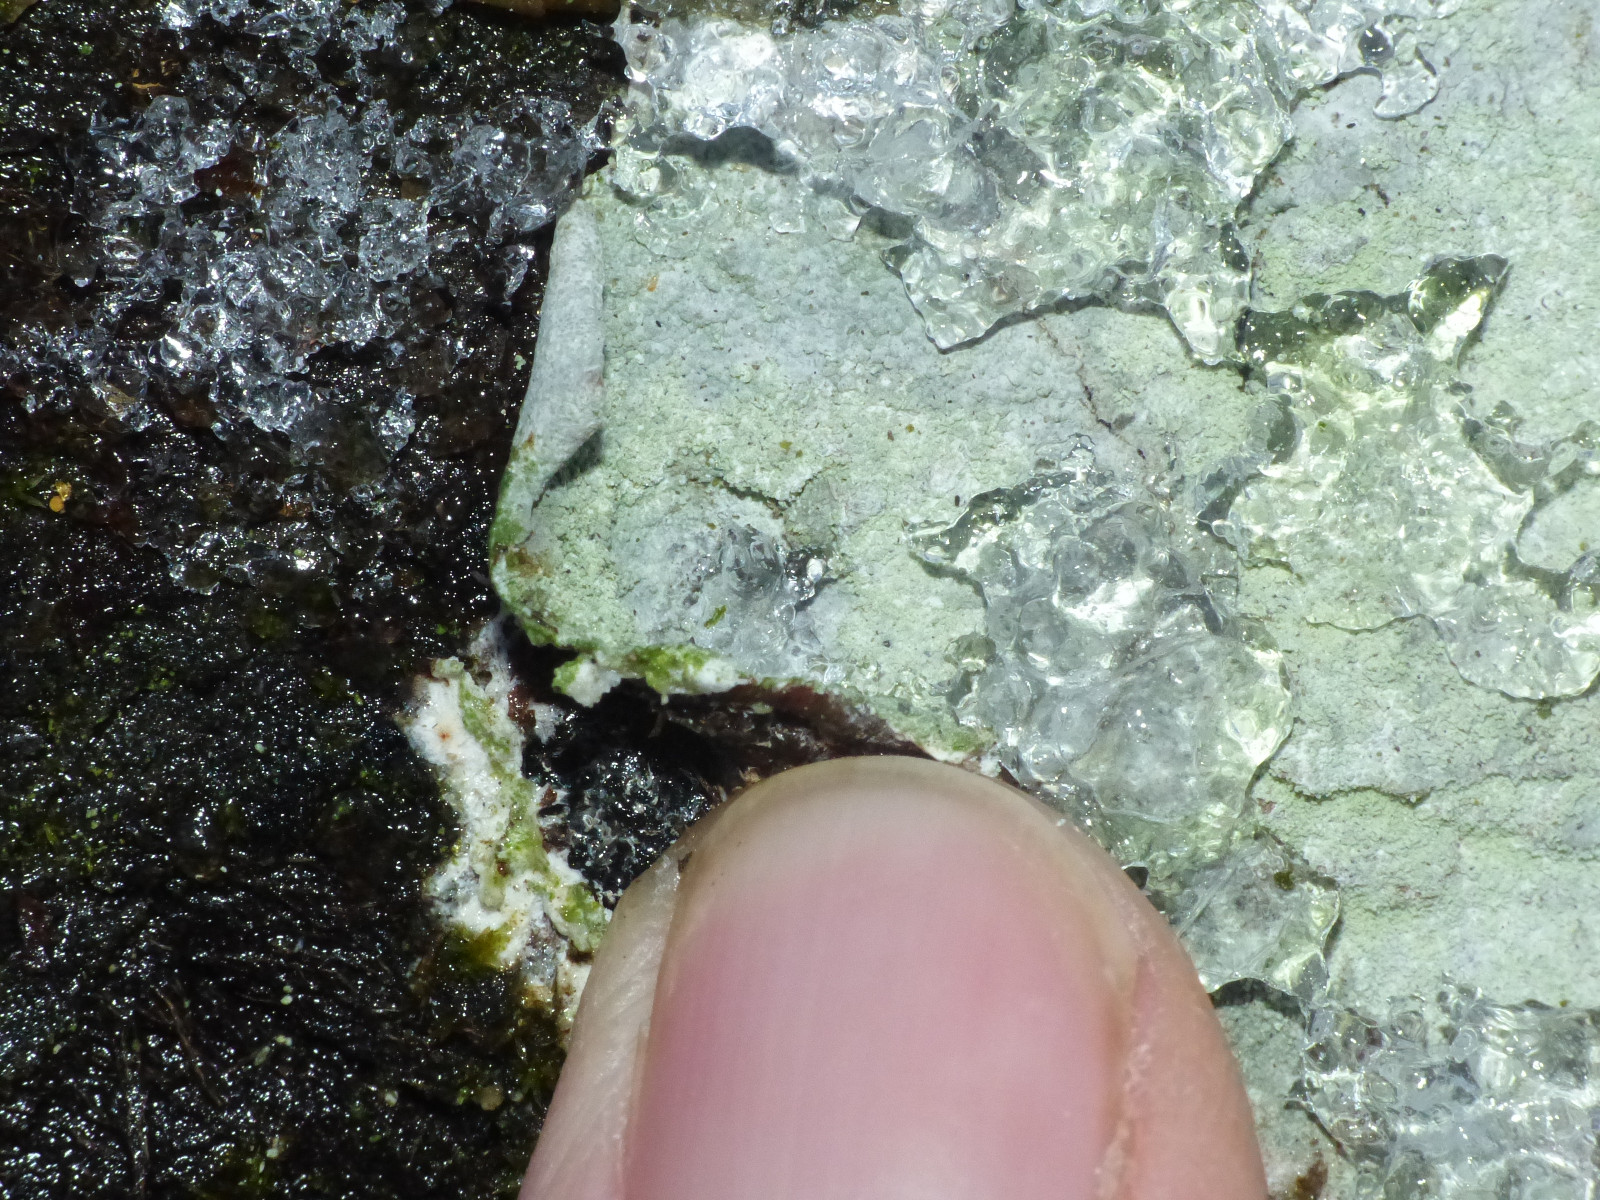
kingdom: Fungi
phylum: Ascomycota
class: Lecanoromycetes
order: Ostropales
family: Phlyctidaceae
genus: Phlyctis
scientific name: Phlyctis argena
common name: almindelig sølvlav
